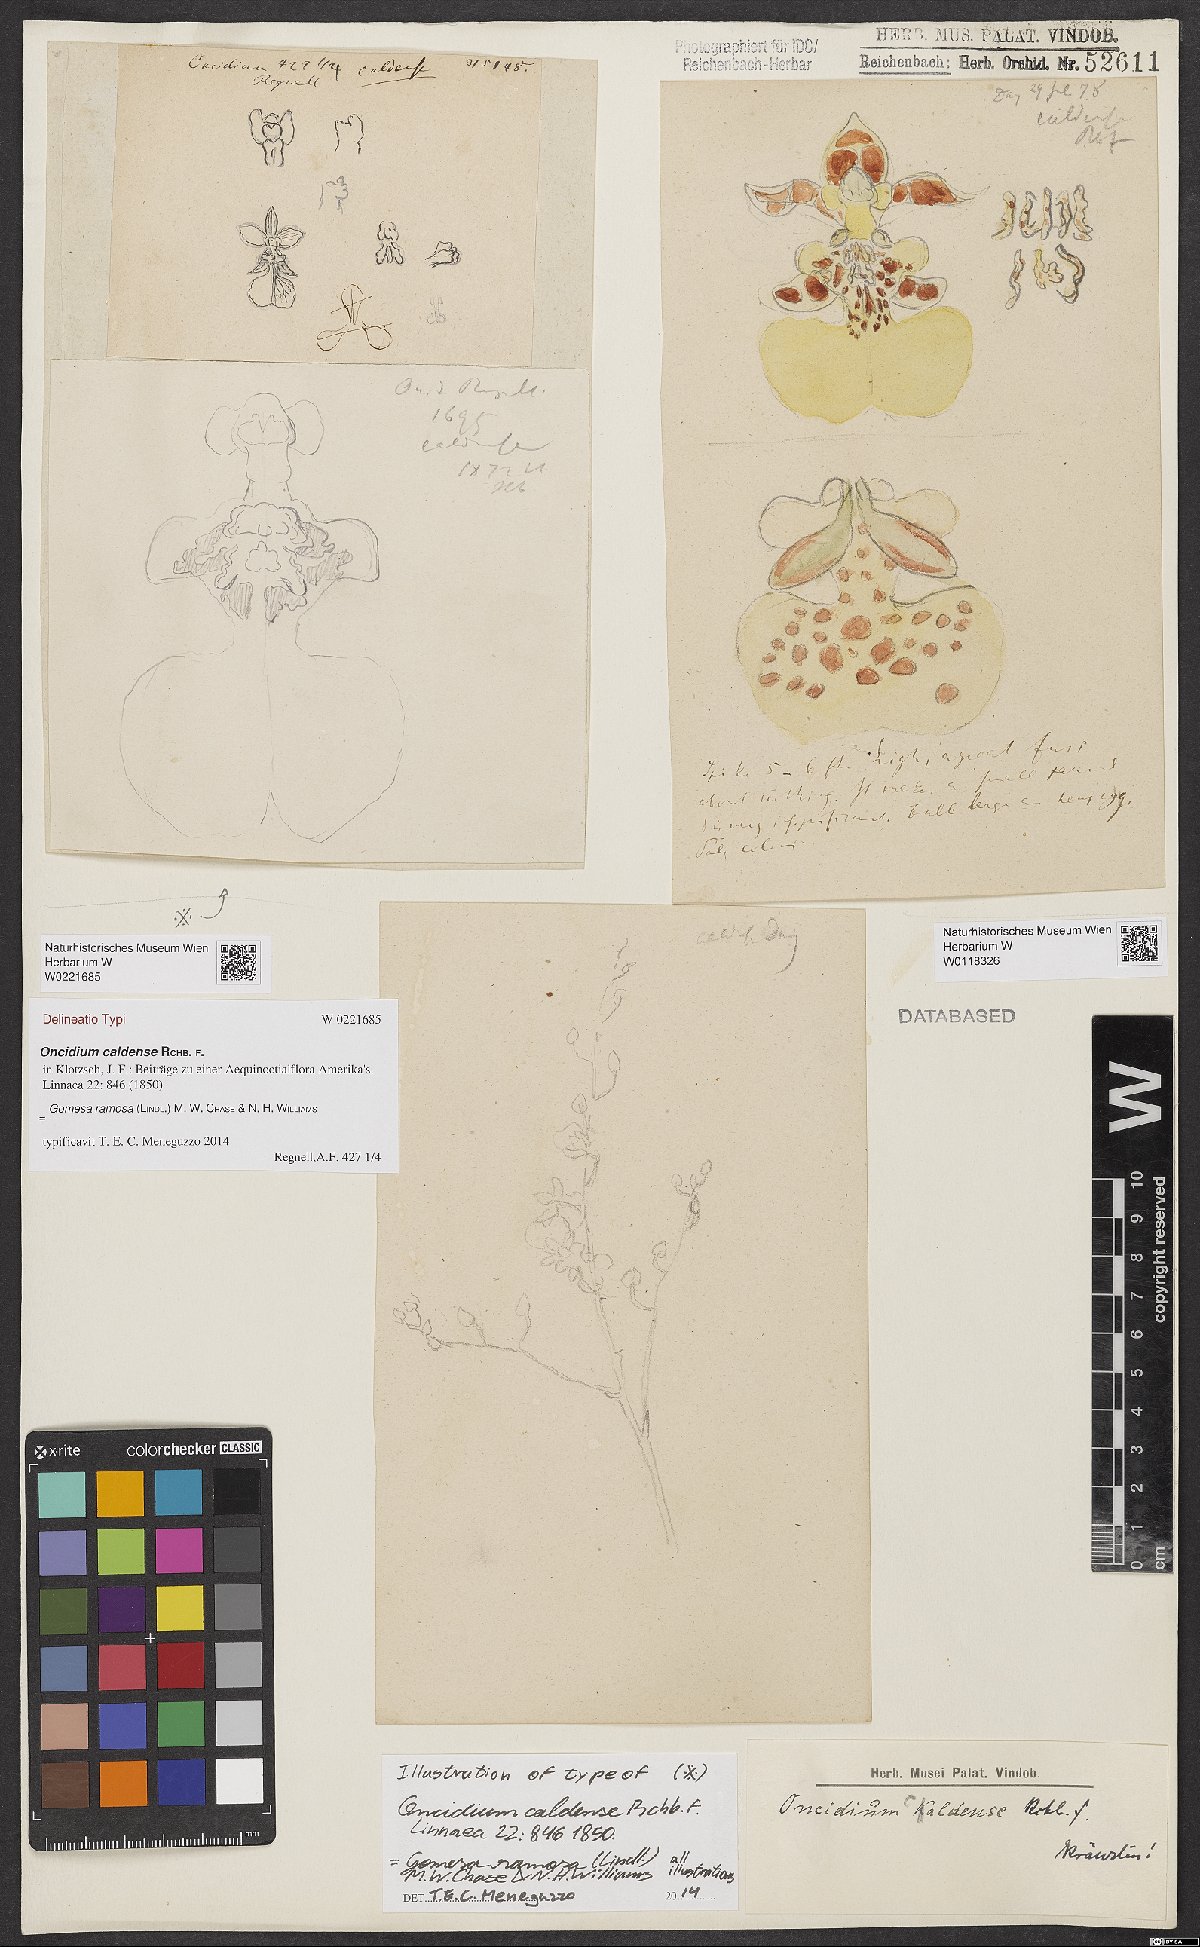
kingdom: Plantae
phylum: Tracheophyta
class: Liliopsida
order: Asparagales
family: Orchidaceae
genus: Gomesa
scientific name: Gomesa ramosa
